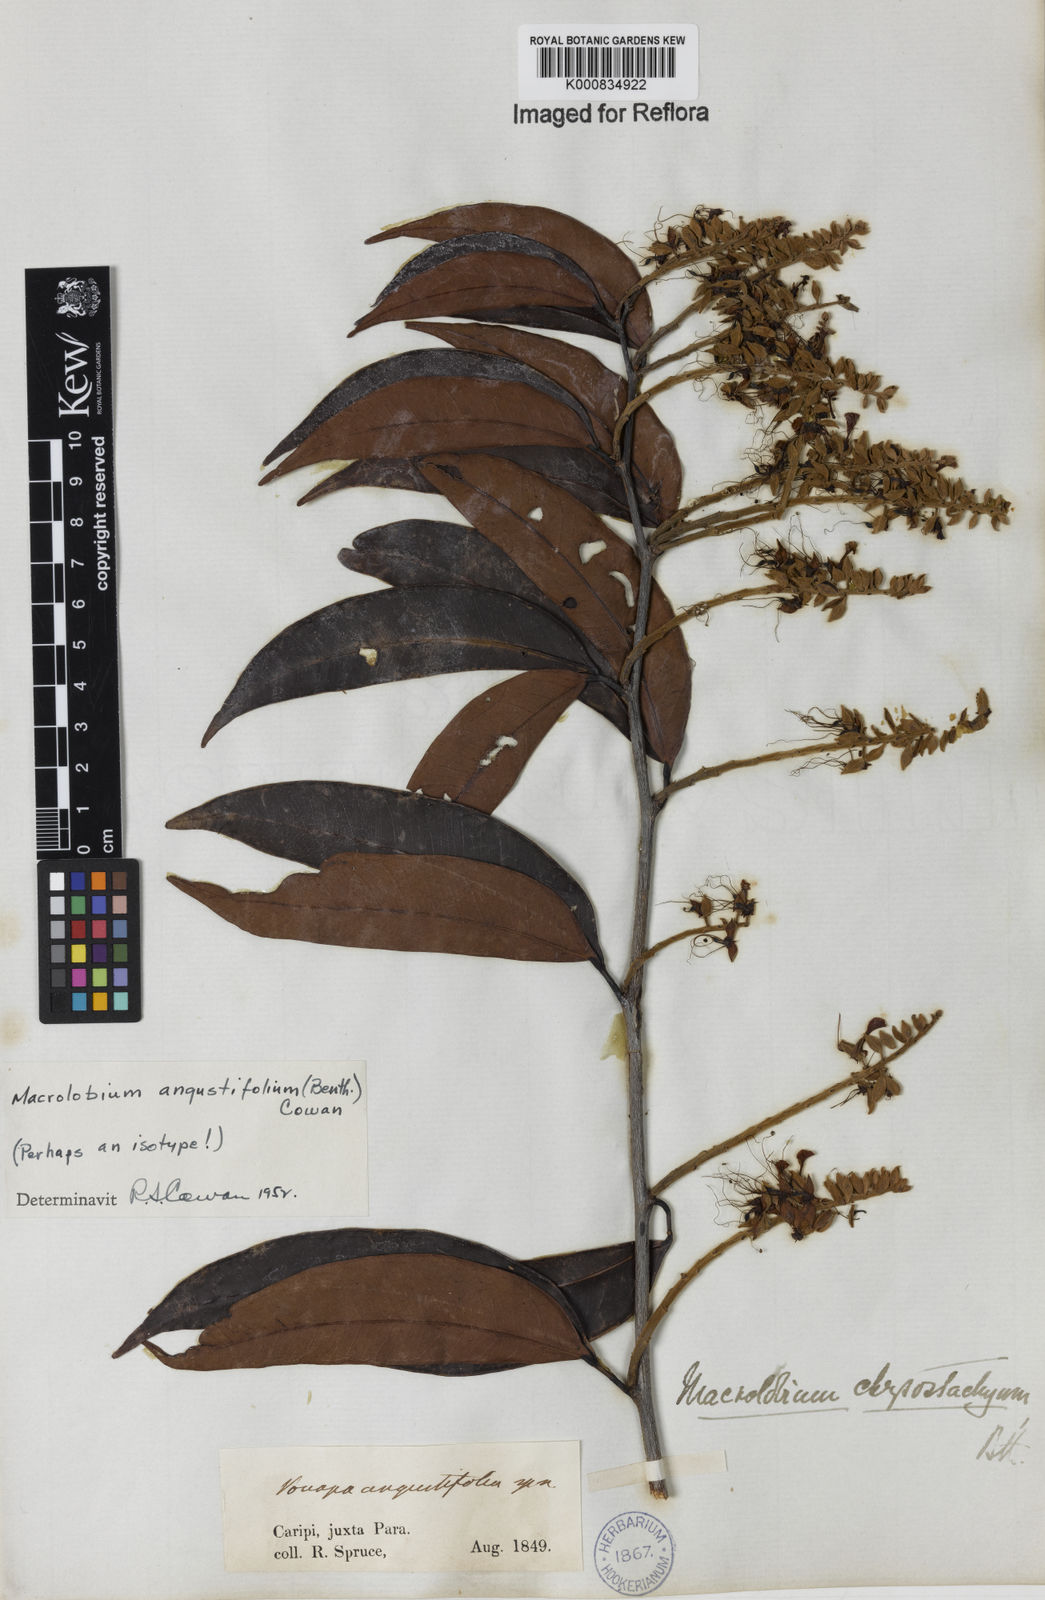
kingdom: Plantae
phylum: Tracheophyta
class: Magnoliopsida
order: Fabales
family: Fabaceae
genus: Macrolobium
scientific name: Macrolobium angustifolium
